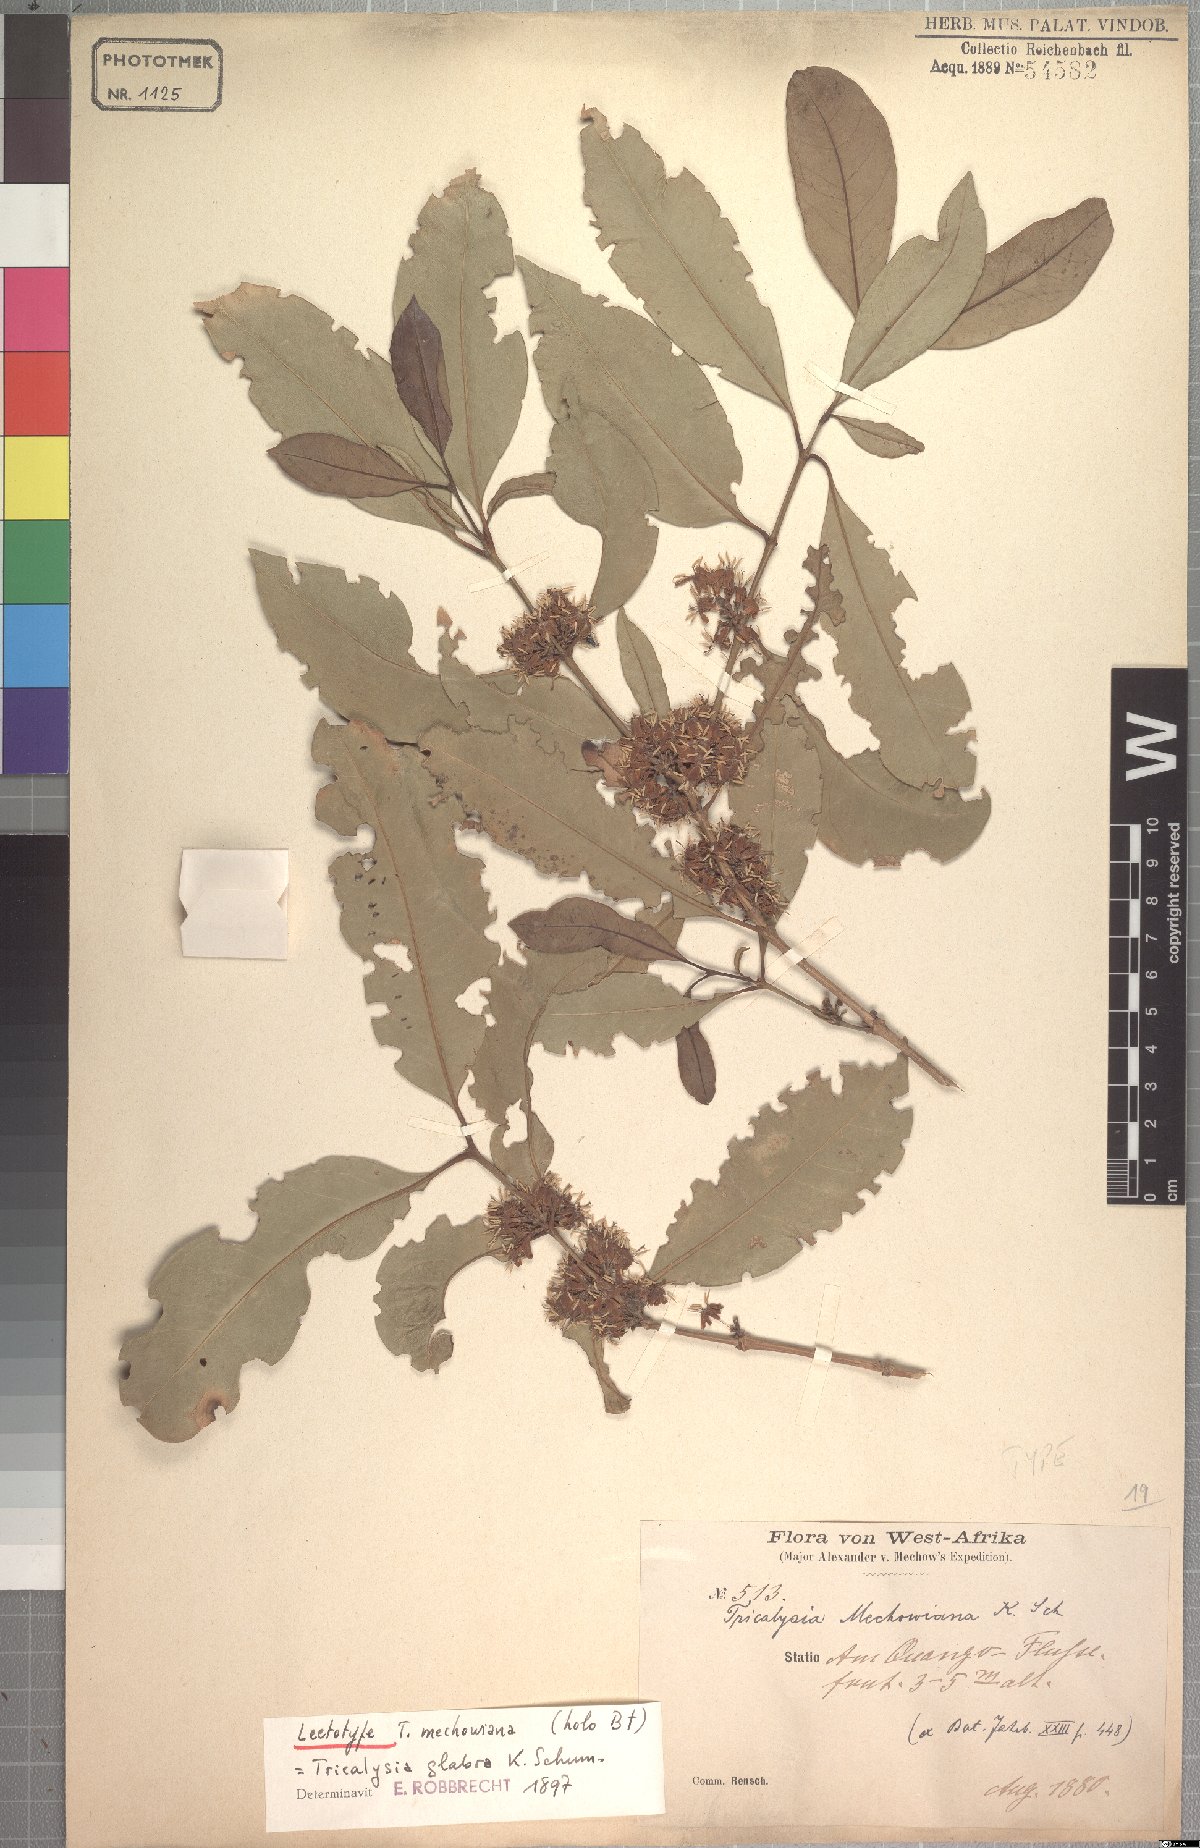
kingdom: Plantae
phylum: Tracheophyta
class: Magnoliopsida
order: Gentianales
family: Rubiaceae
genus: Empogona
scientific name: Empogona glabra
